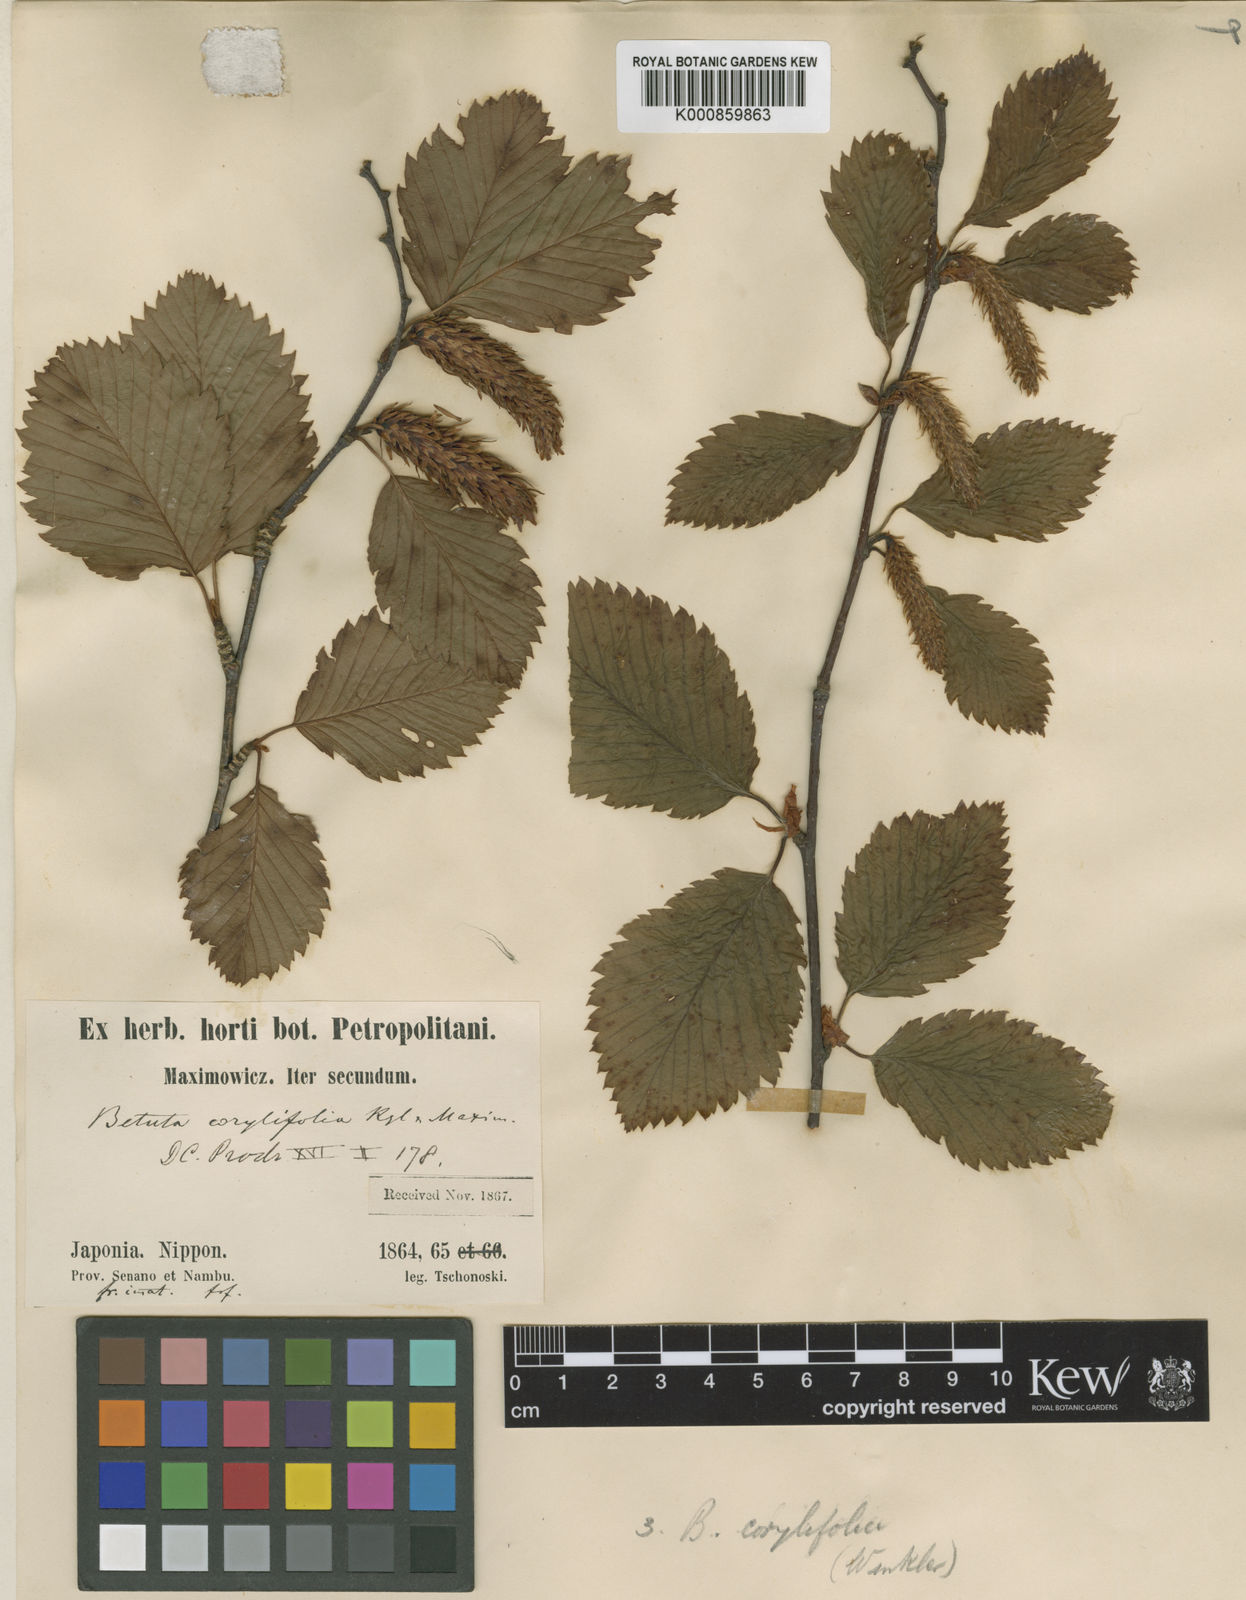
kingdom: Plantae
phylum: Tracheophyta
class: Magnoliopsida
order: Fagales
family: Betulaceae
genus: Betula
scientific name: Betula corylifolia
